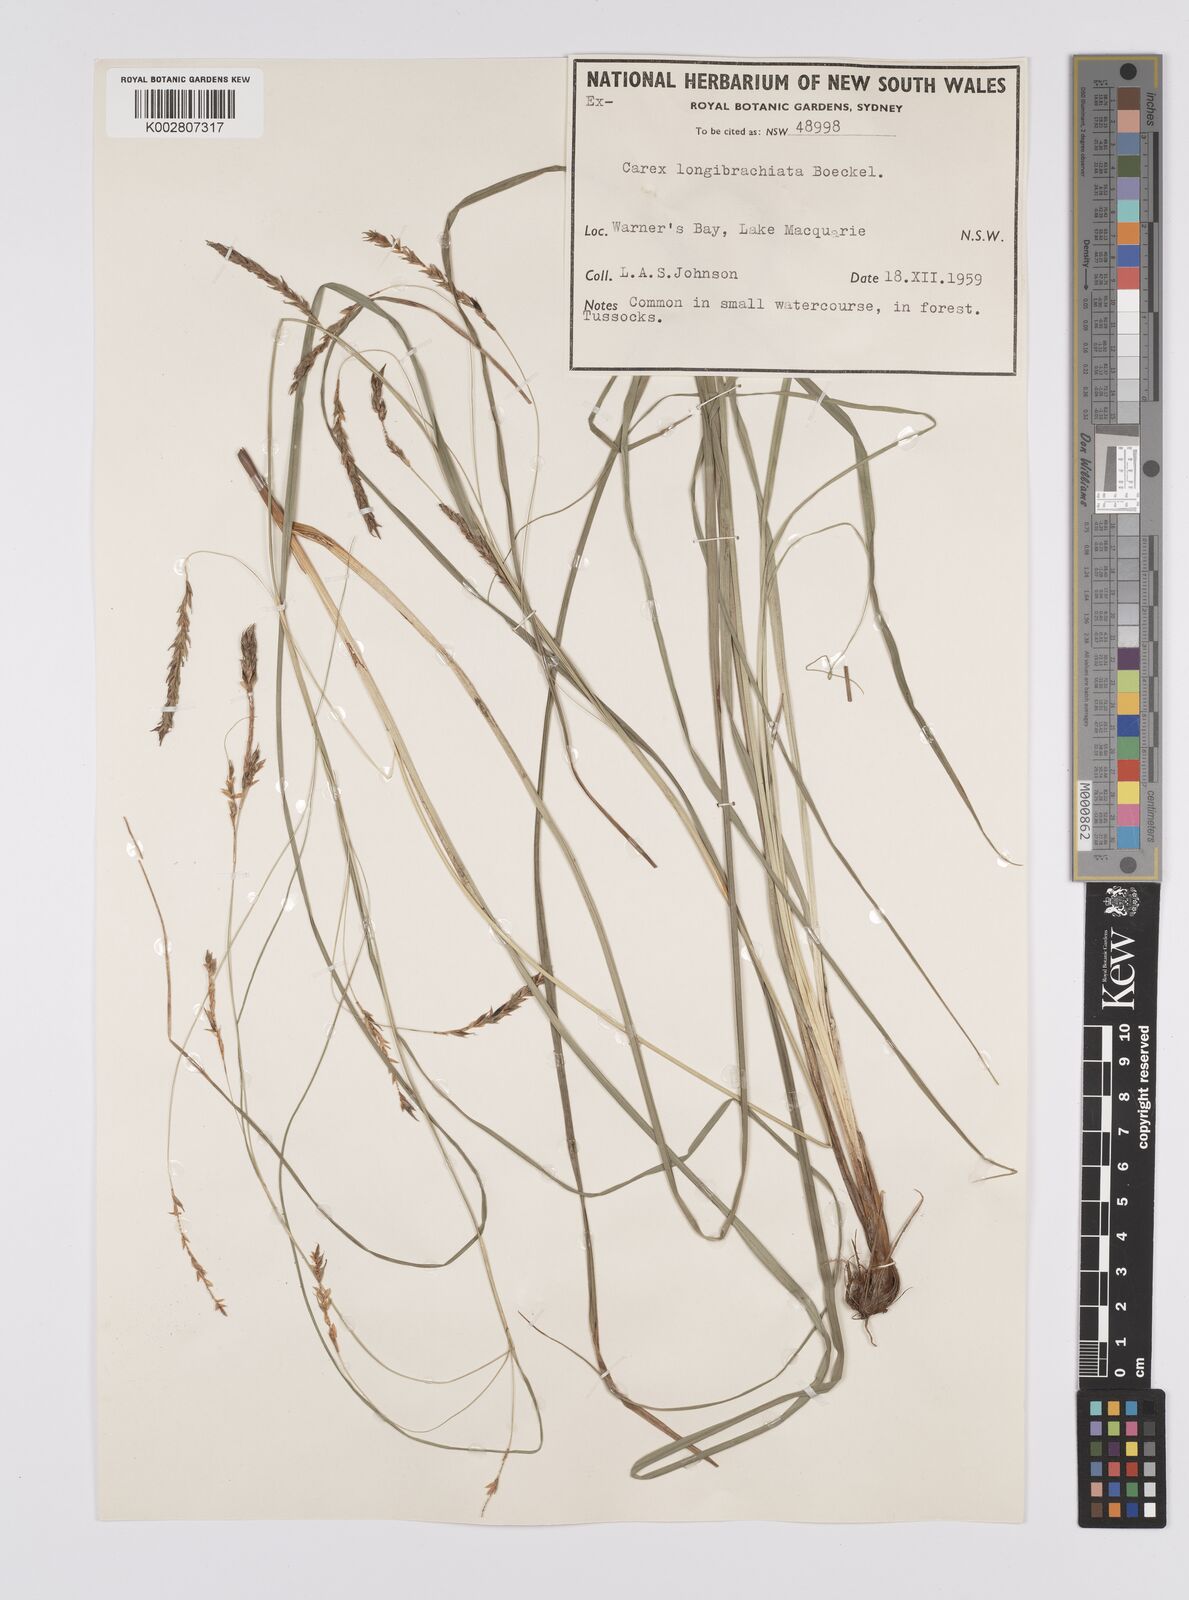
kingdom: Plantae
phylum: Tracheophyta
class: Liliopsida
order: Poales
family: Cyperaceae
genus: Carex
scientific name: Carex pseudocyperus
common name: Cyperus sedge
